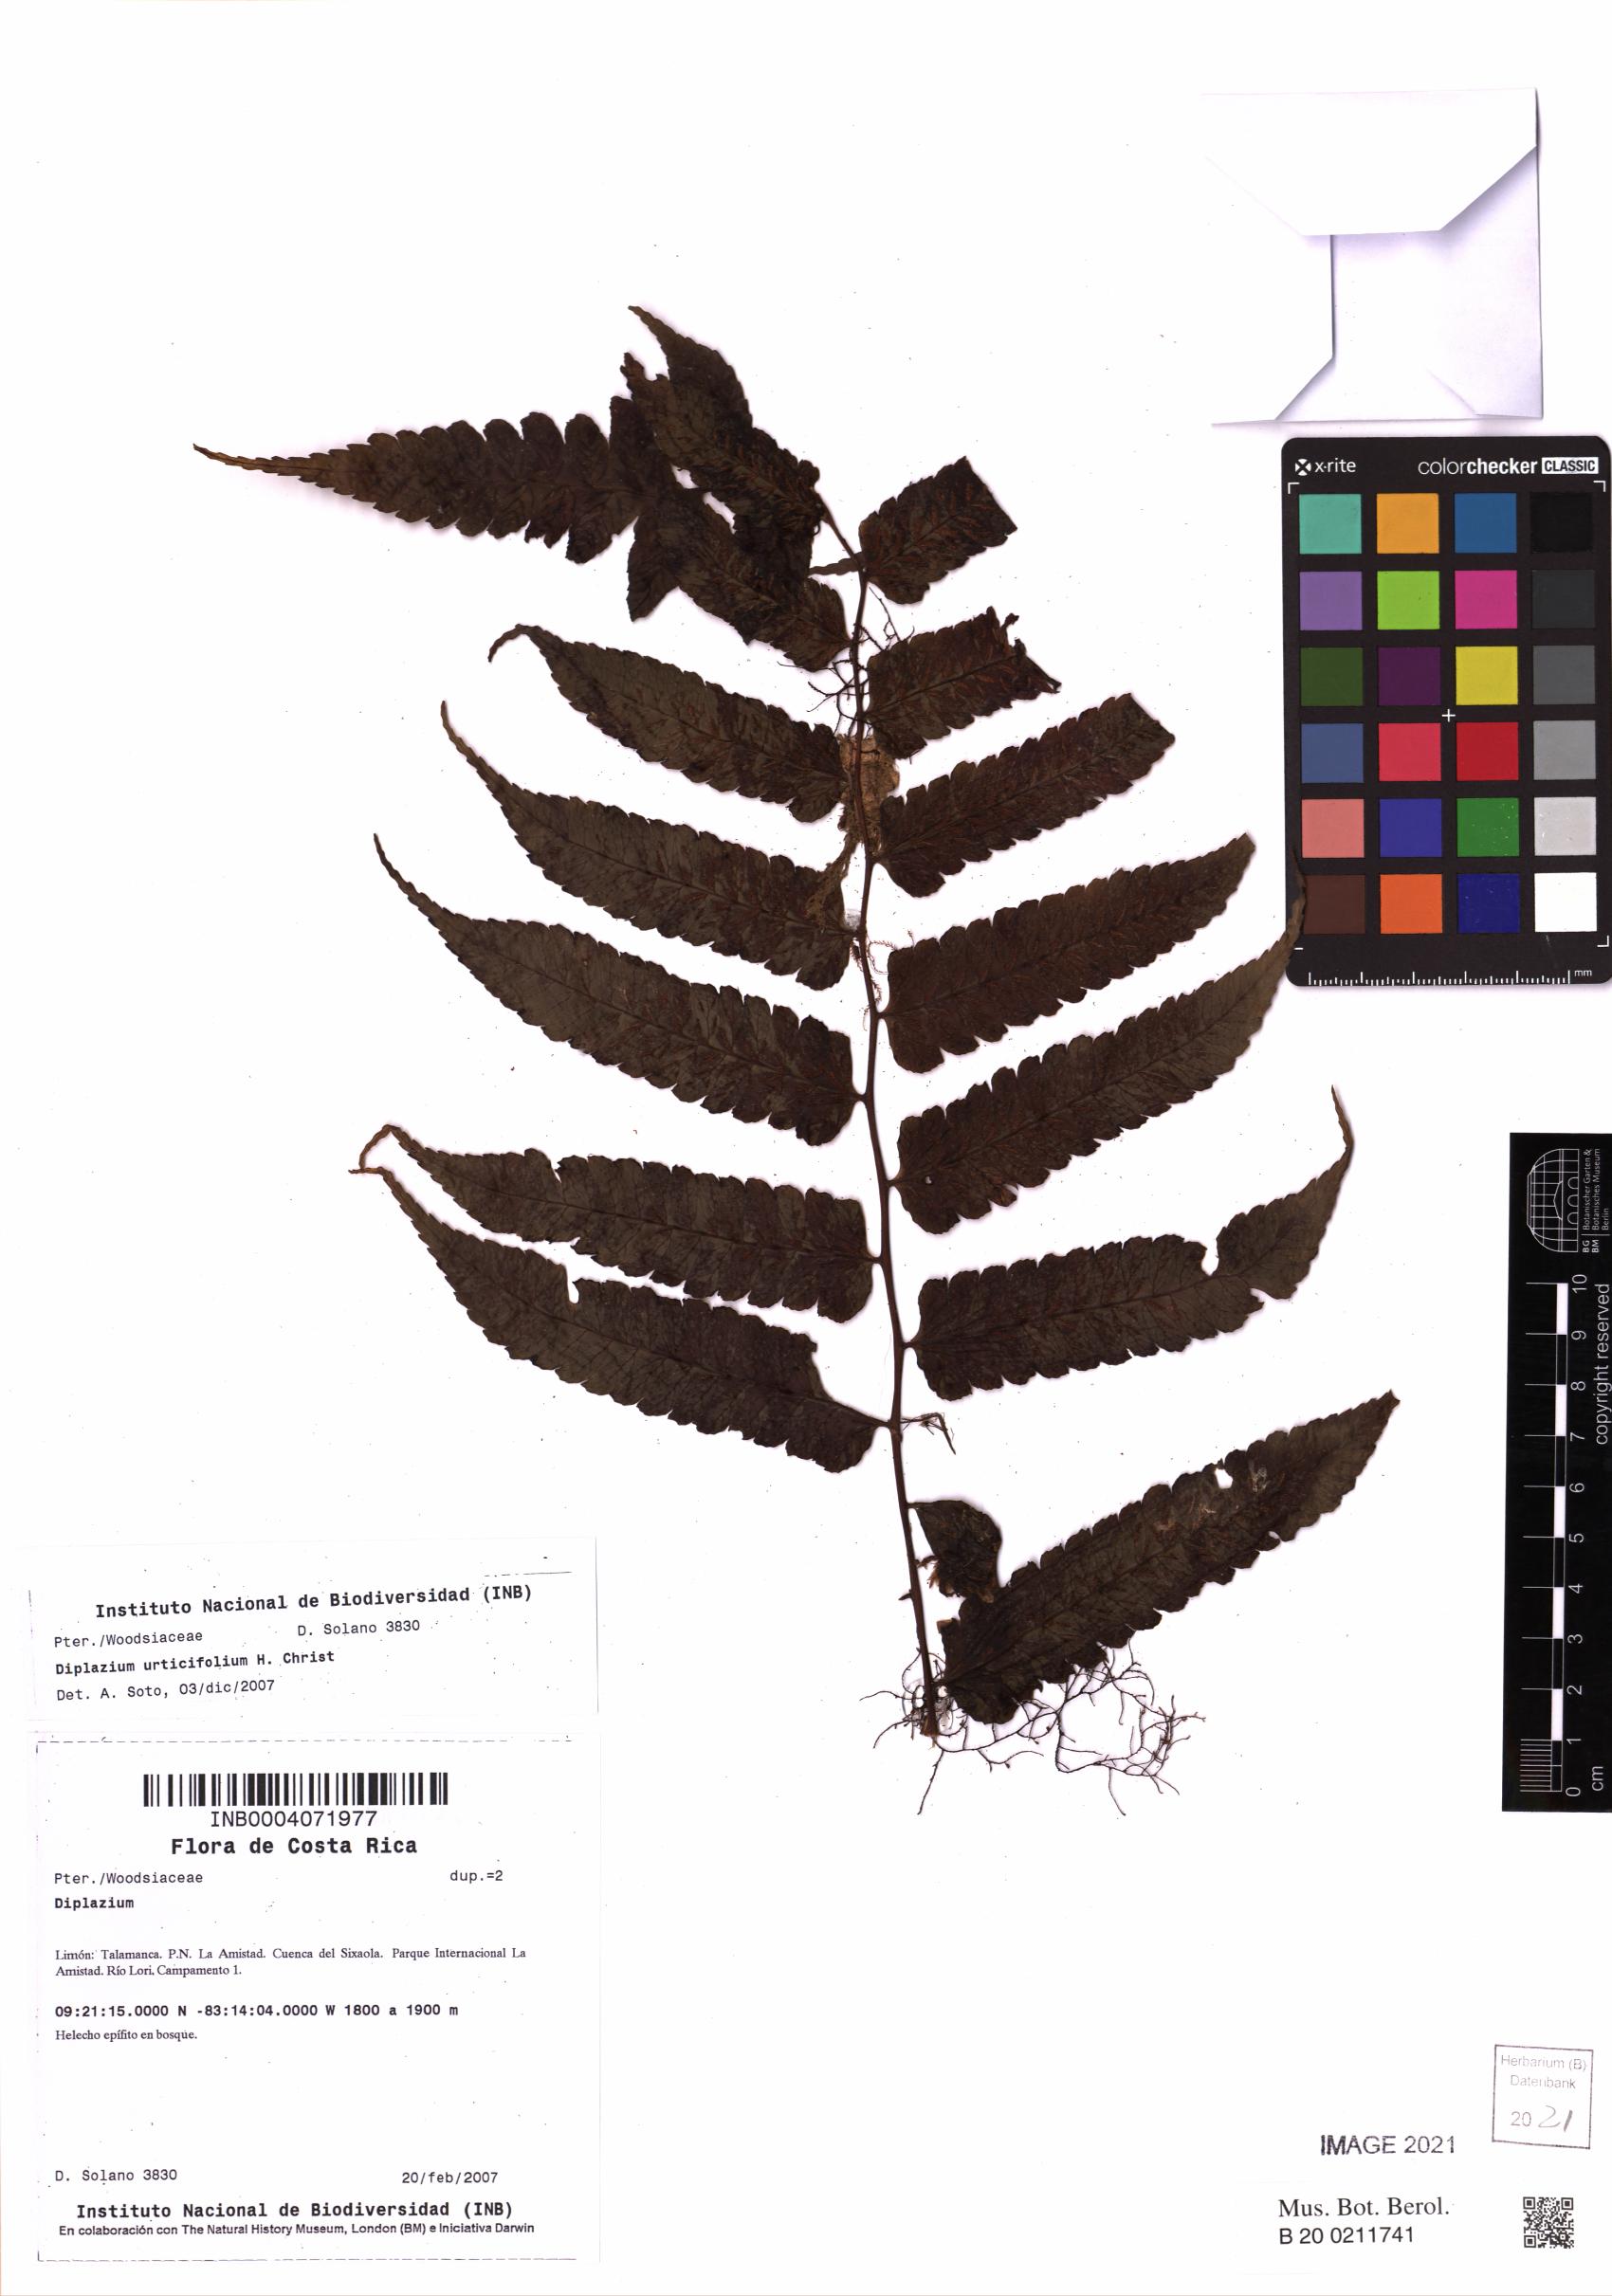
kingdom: Plantae
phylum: Tracheophyta
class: Polypodiopsida
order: Polypodiales
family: Athyriaceae
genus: Diplazium
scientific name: Diplazium urticifolium
